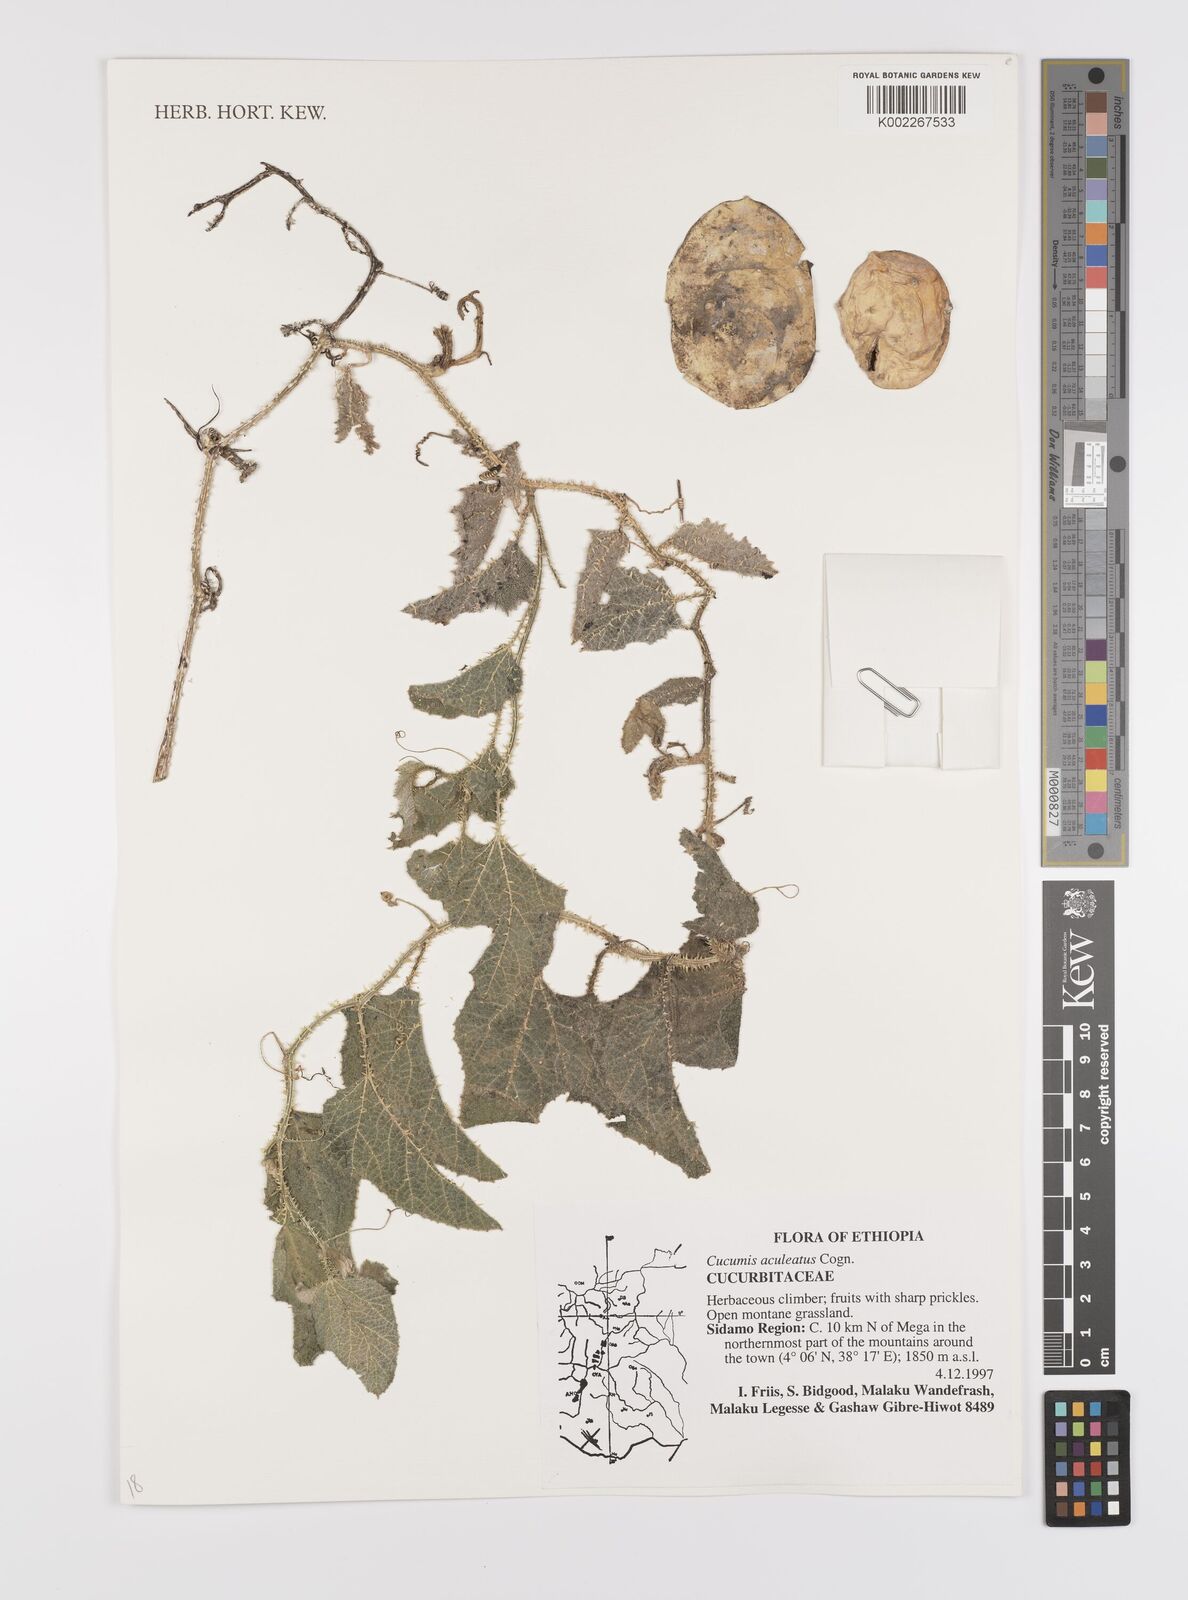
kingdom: Plantae
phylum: Tracheophyta
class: Magnoliopsida
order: Cucurbitales
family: Cucurbitaceae
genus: Cucumis
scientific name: Cucumis aculeatus
